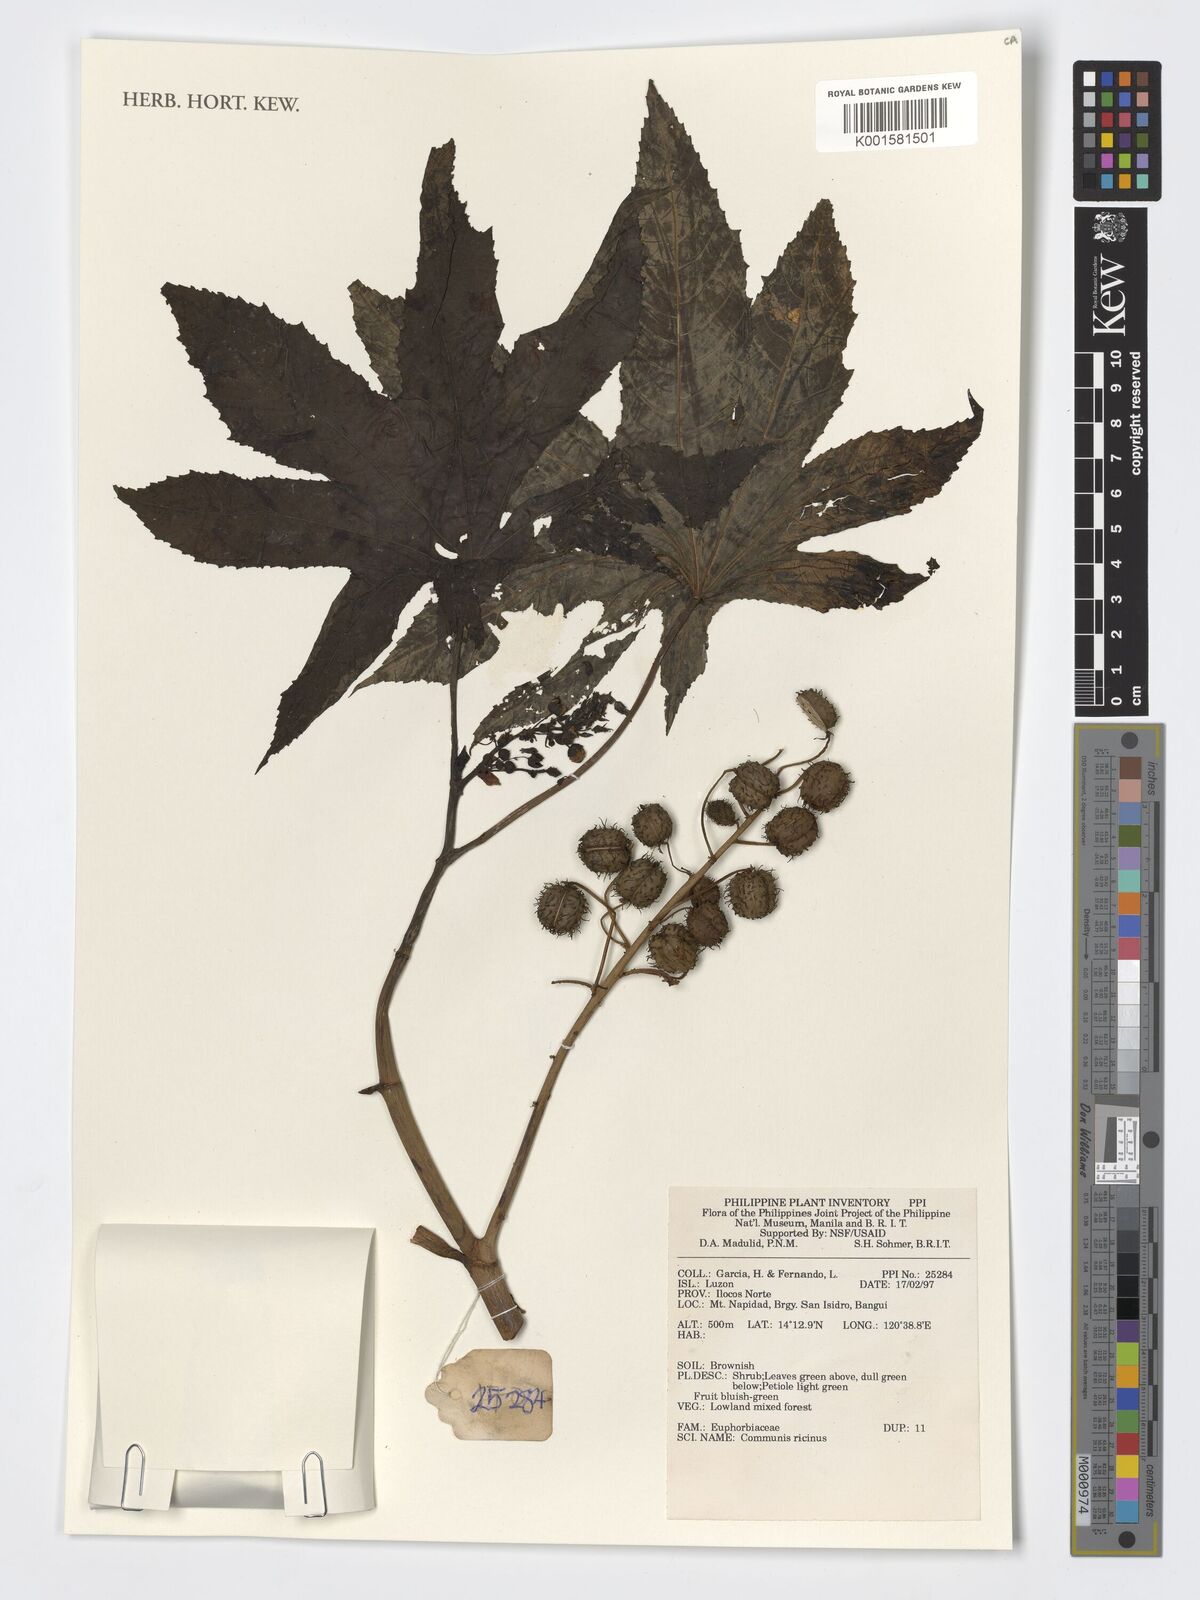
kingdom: Plantae
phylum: Tracheophyta
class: Magnoliopsida
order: Malpighiales
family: Euphorbiaceae
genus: Ricinus
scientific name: Ricinus communis
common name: Castor-oil-plant
